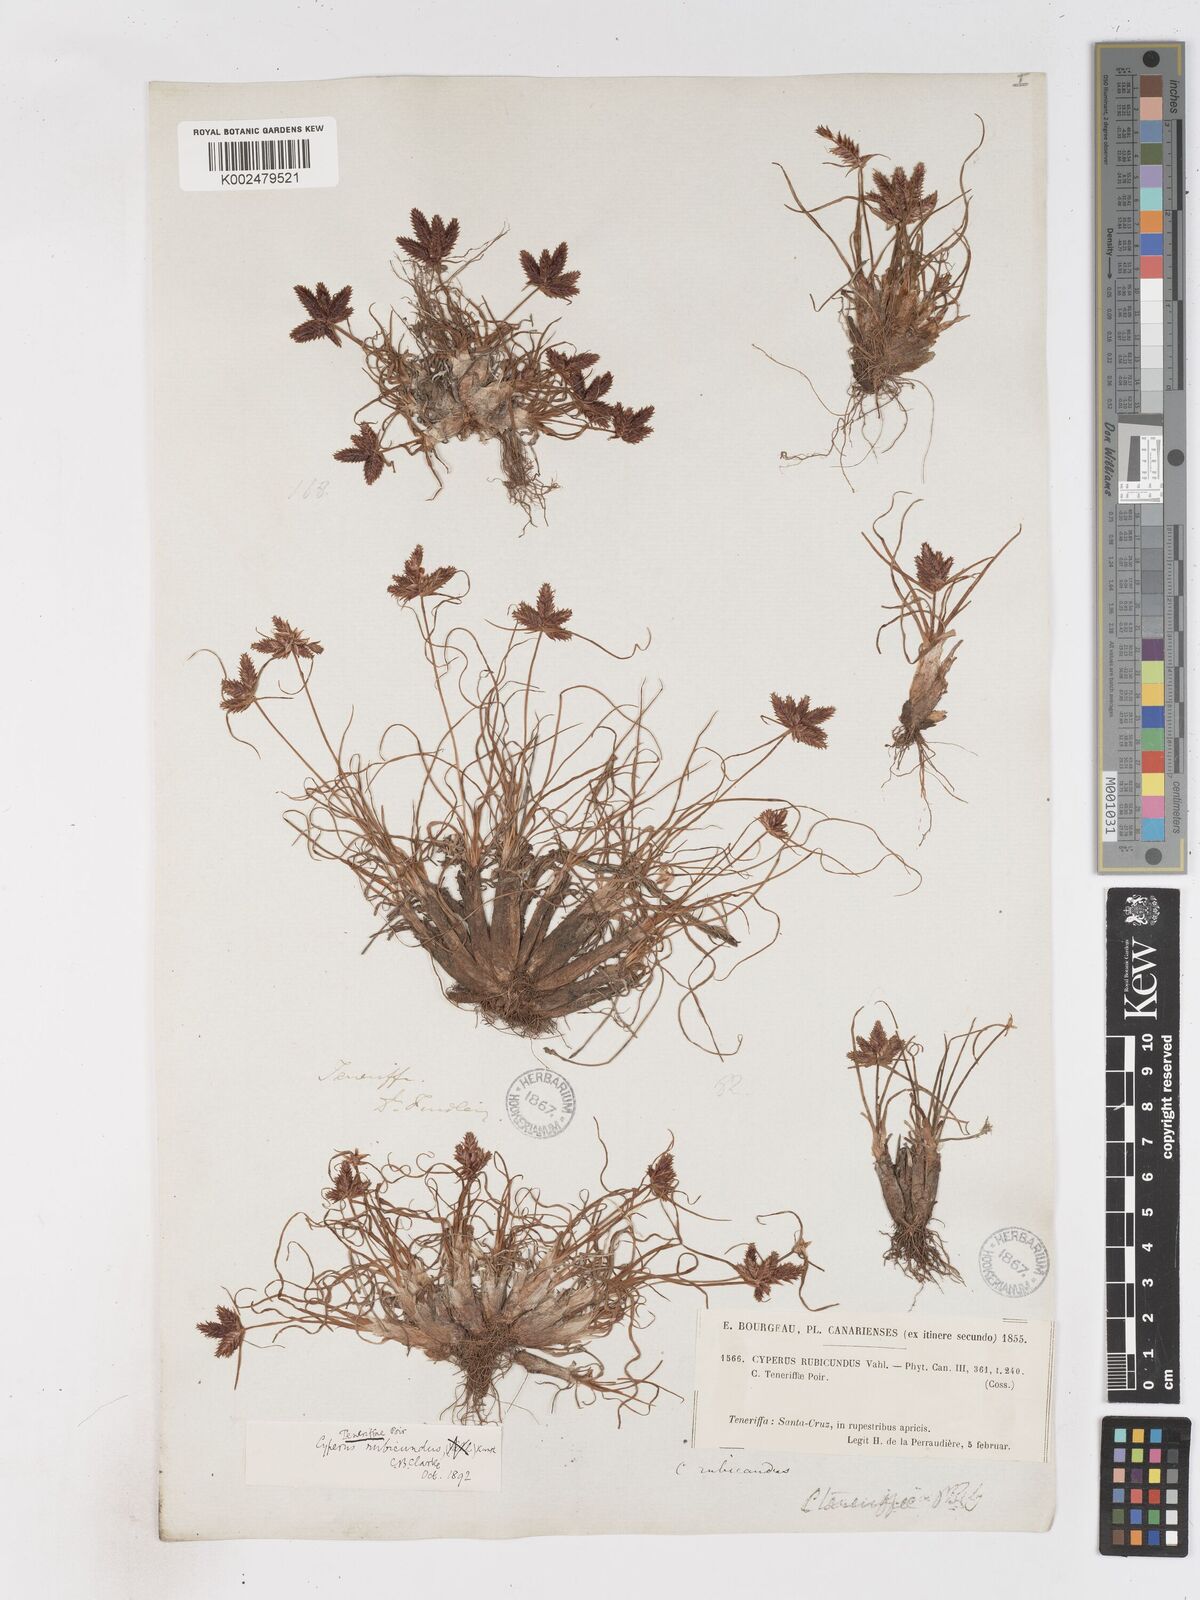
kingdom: Plantae
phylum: Tracheophyta
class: Liliopsida
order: Poales
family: Cyperaceae
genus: Cyperus
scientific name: Cyperus rubicundus
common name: Coco-grass
